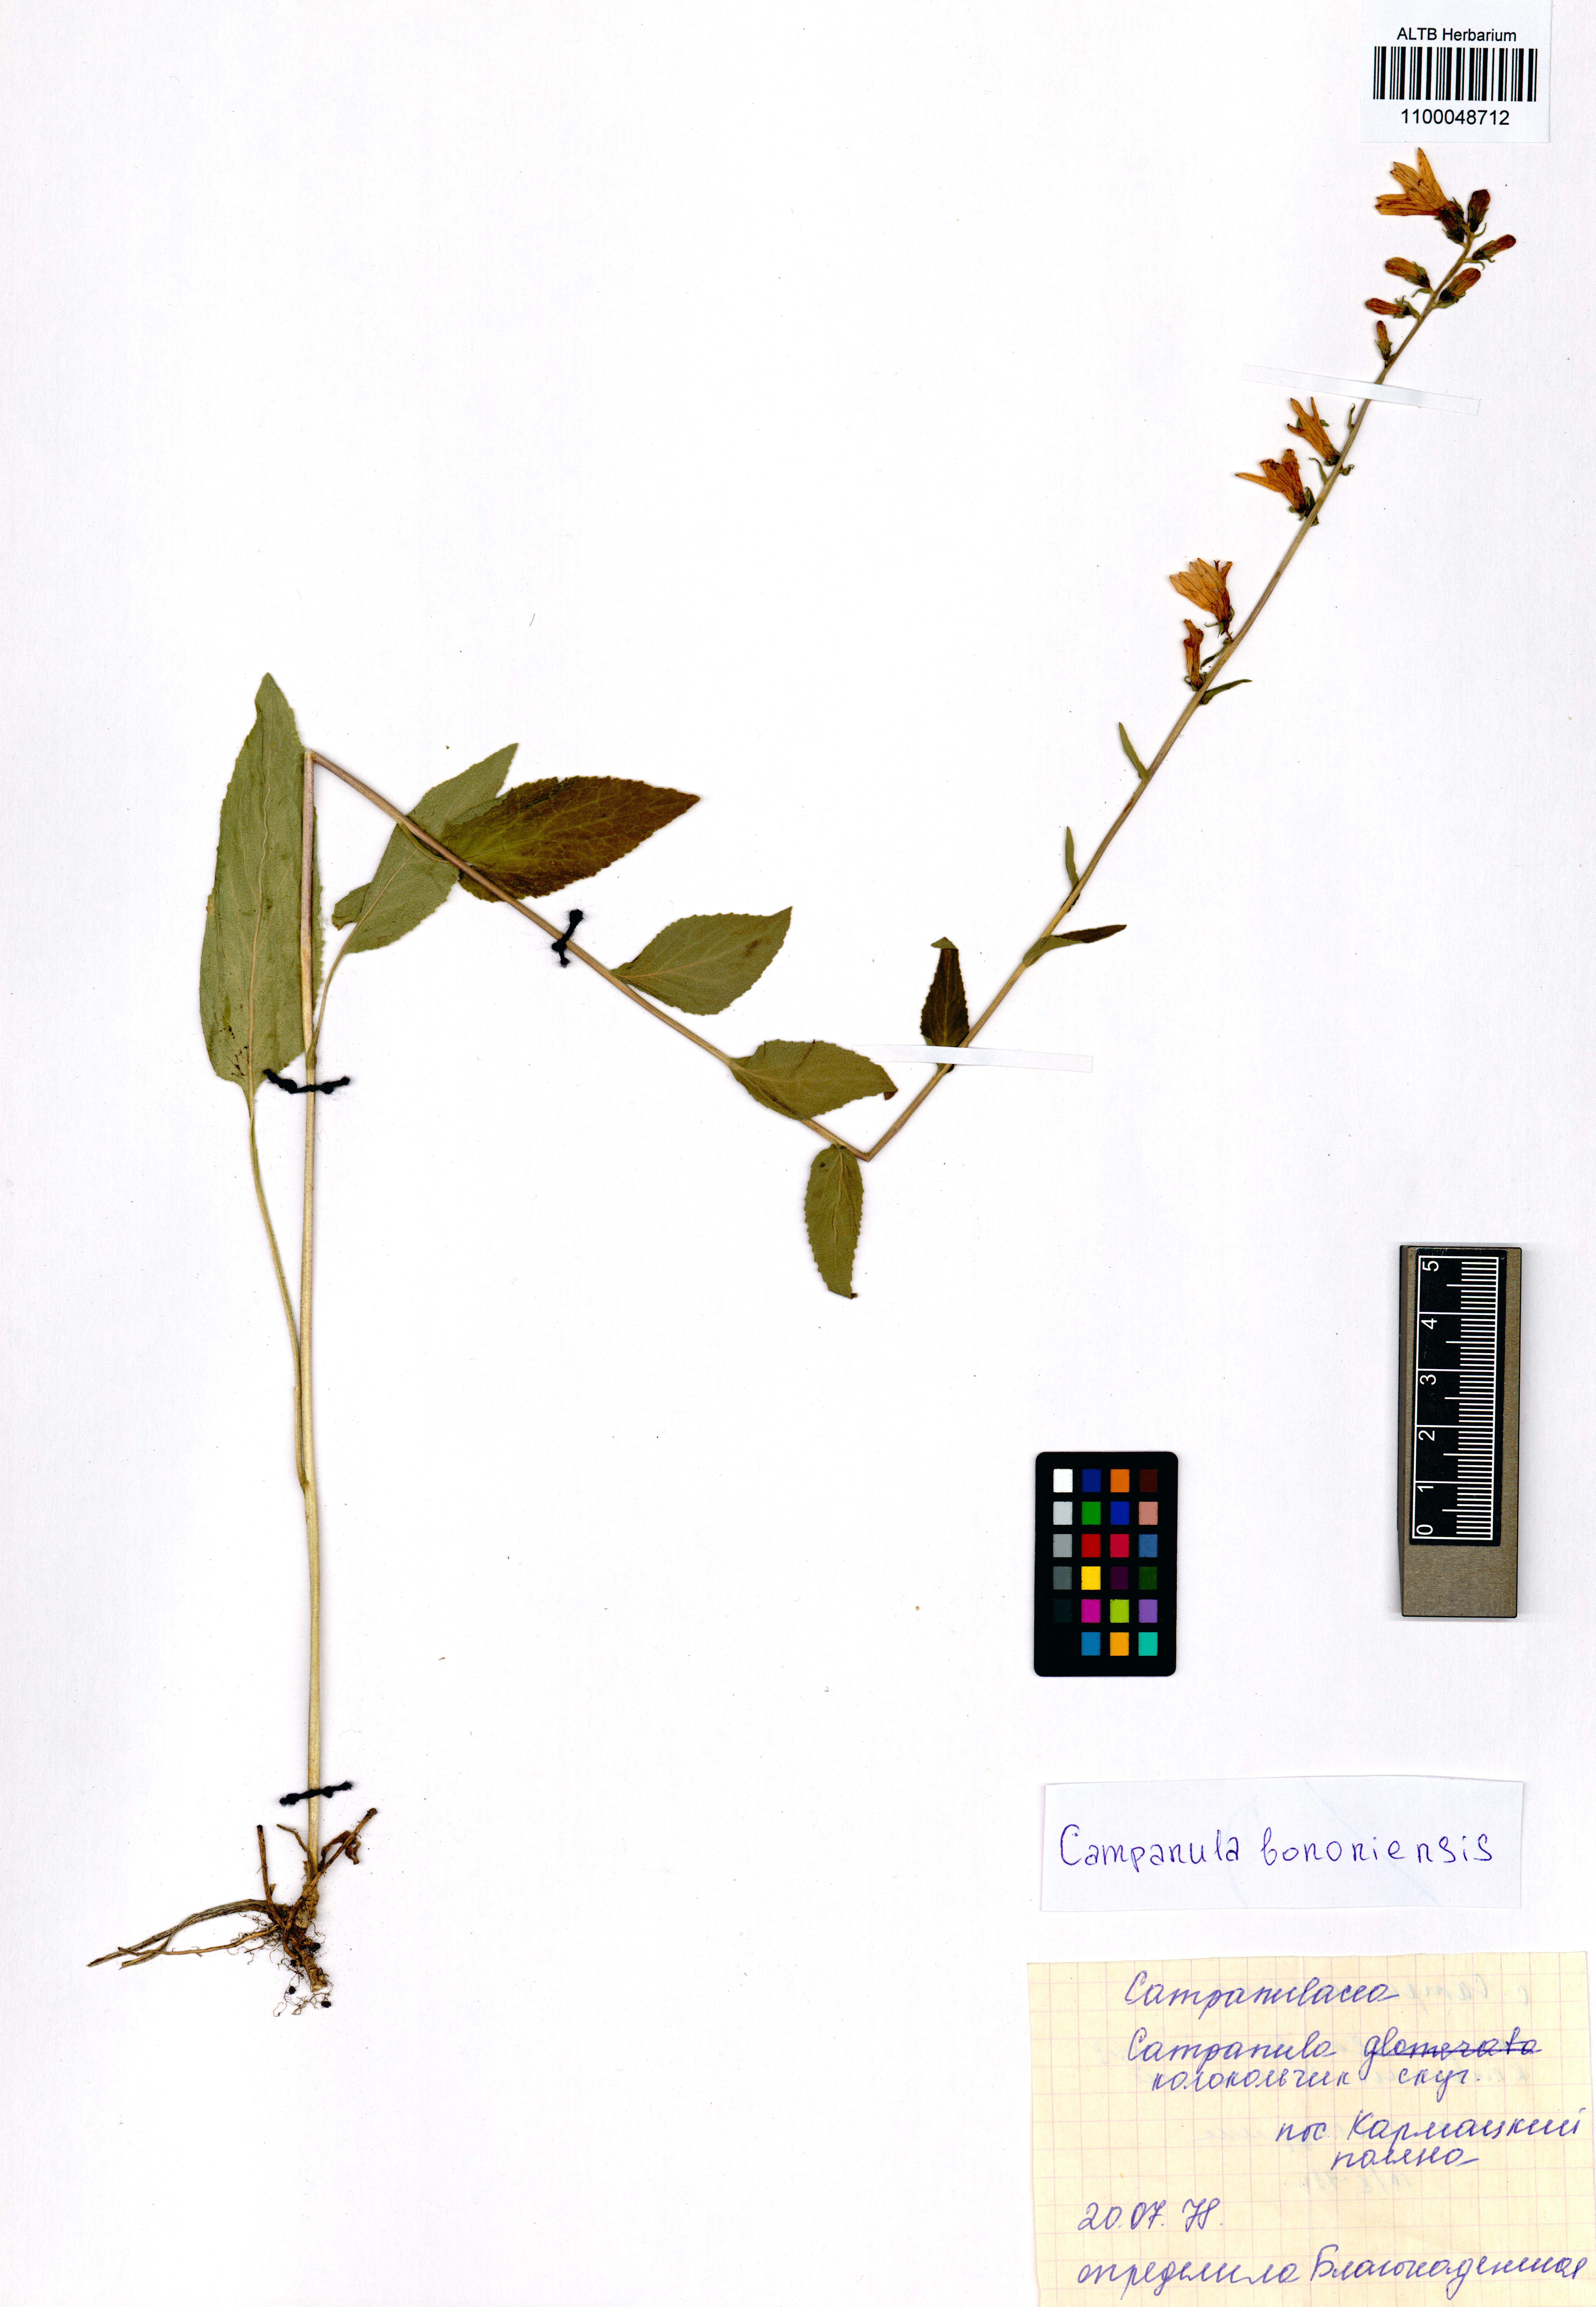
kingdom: Plantae
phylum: Tracheophyta
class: Magnoliopsida
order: Asterales
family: Campanulaceae
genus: Campanula
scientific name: Campanula bononiensis
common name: Pale bellflower
